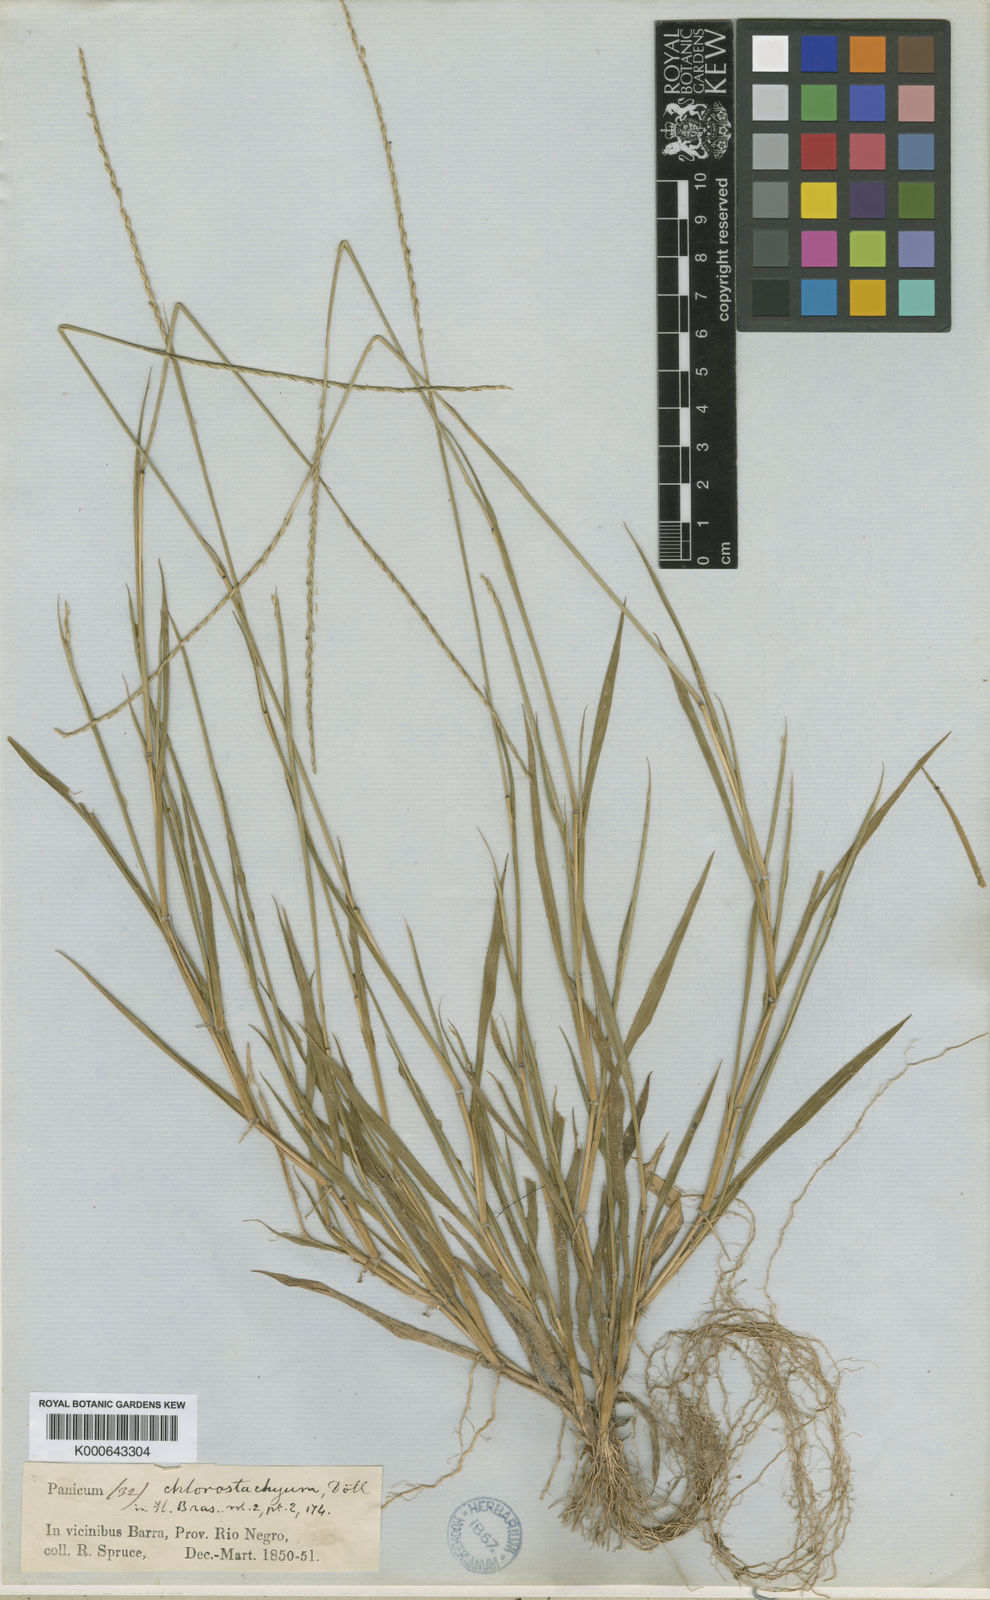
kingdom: Plantae
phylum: Tracheophyta
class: Liliopsida
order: Poales
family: Poaceae
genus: Mesosetum
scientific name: Mesosetum
